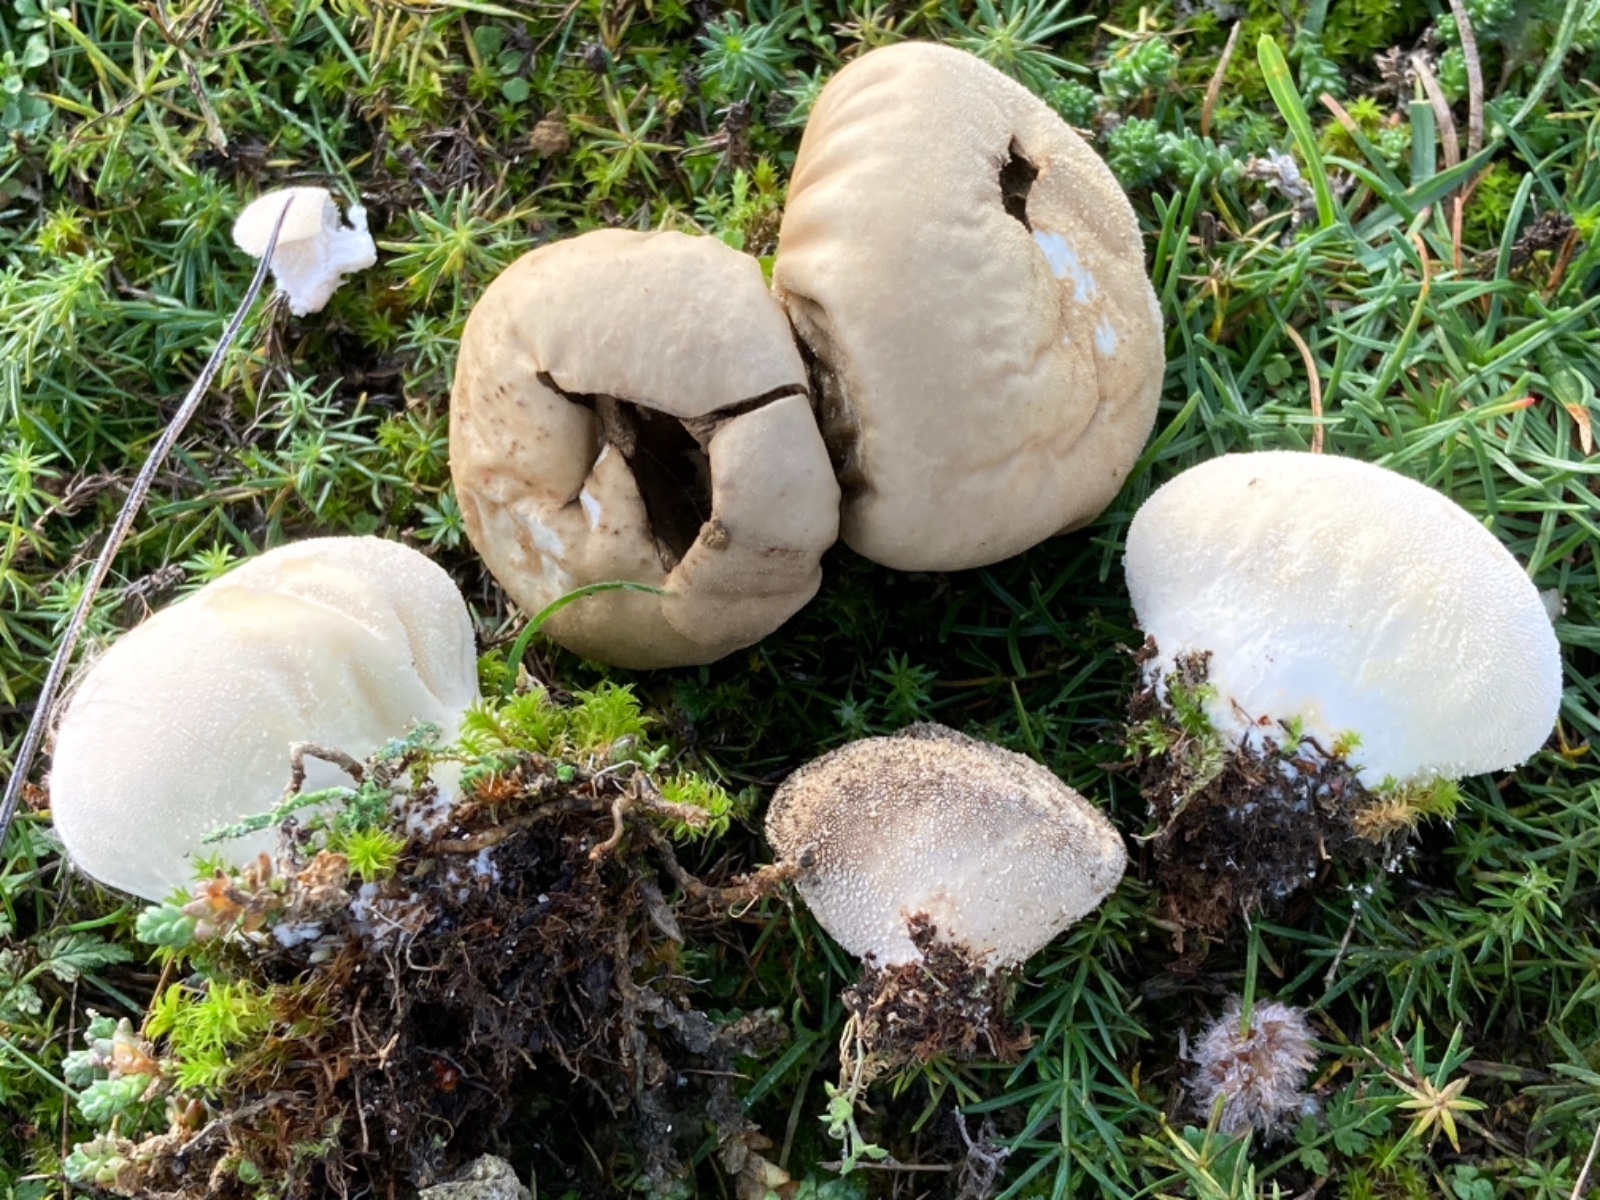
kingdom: Fungi
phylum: Basidiomycota
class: Agaricomycetes
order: Agaricales
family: Lycoperdaceae
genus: Lycoperdon
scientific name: Lycoperdon pratense
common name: flad støvbold
